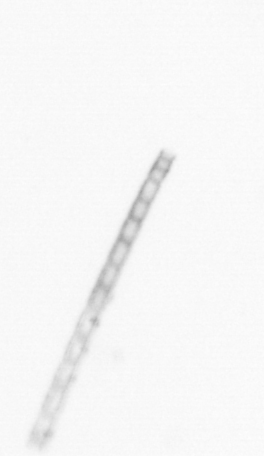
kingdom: Chromista
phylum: Ochrophyta
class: Bacillariophyceae
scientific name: Bacillariophyceae
